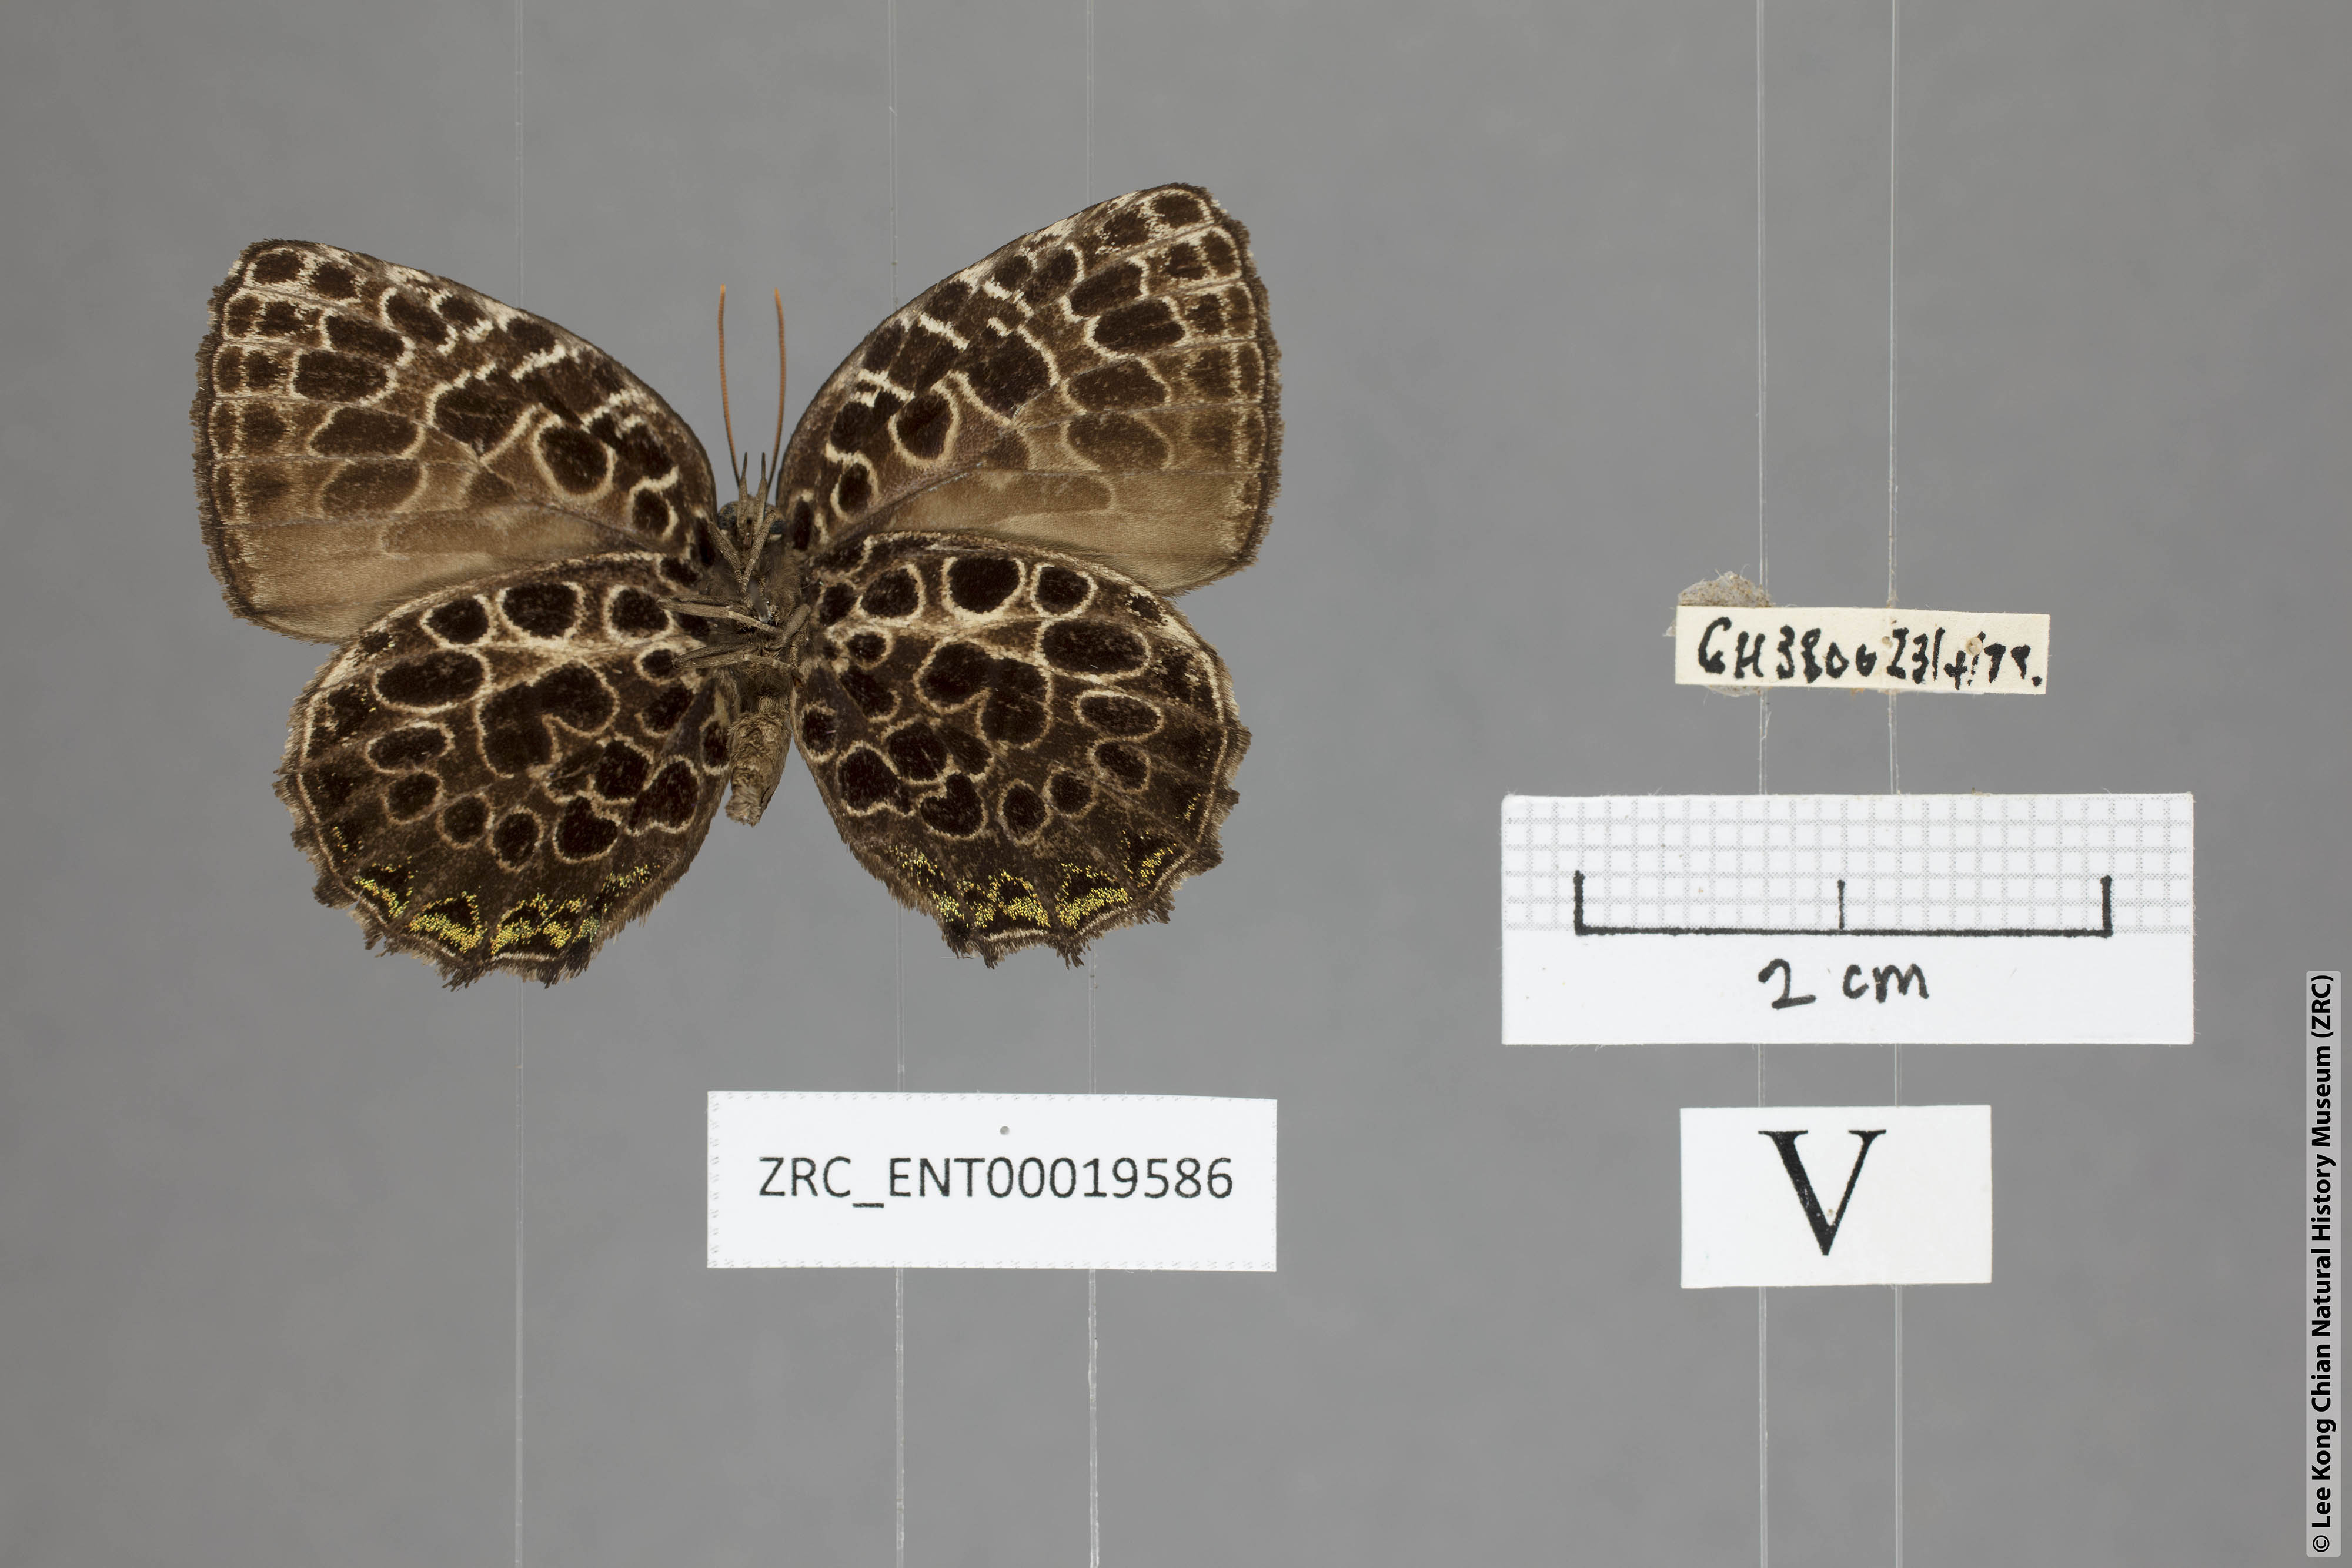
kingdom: Animalia
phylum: Arthropoda
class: Insecta
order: Lepidoptera
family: Lycaenidae
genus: Arhopala
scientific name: Arhopala kinabala
